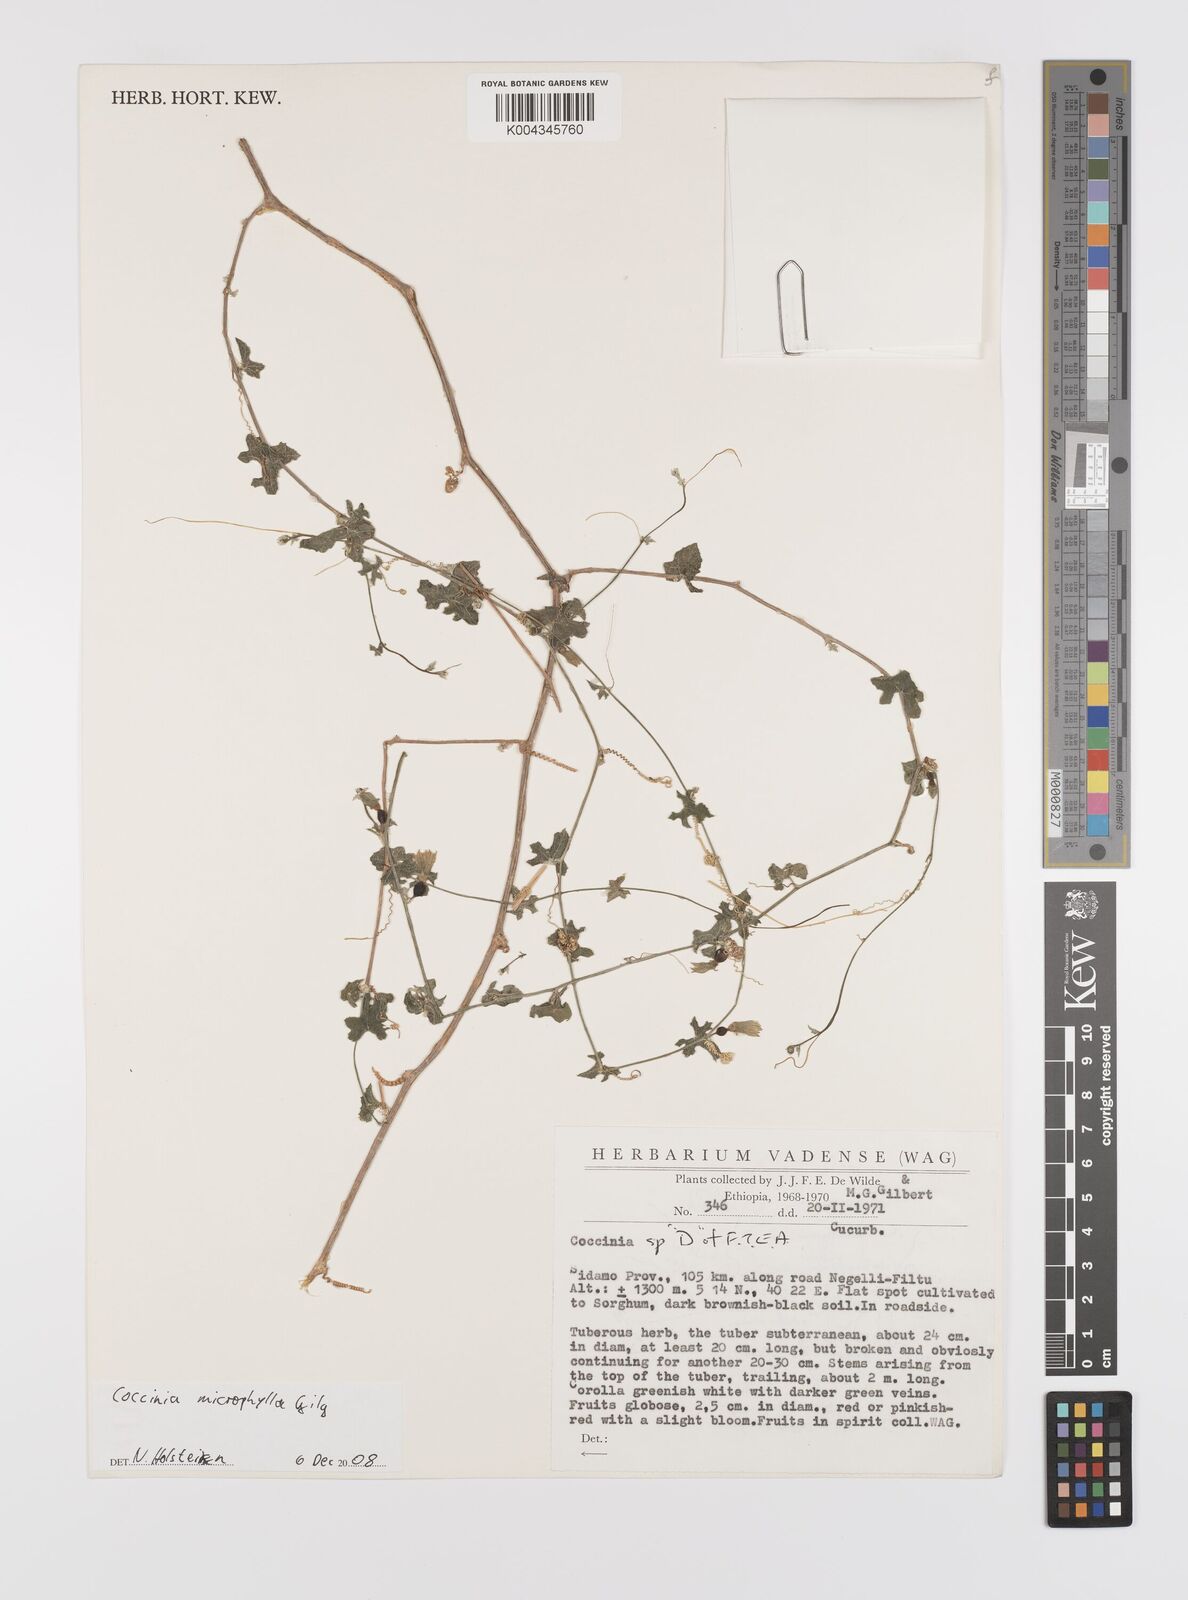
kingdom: Plantae
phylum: Tracheophyta
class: Magnoliopsida
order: Cucurbitales
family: Cucurbitaceae
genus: Coccinia
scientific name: Coccinia microphylla
